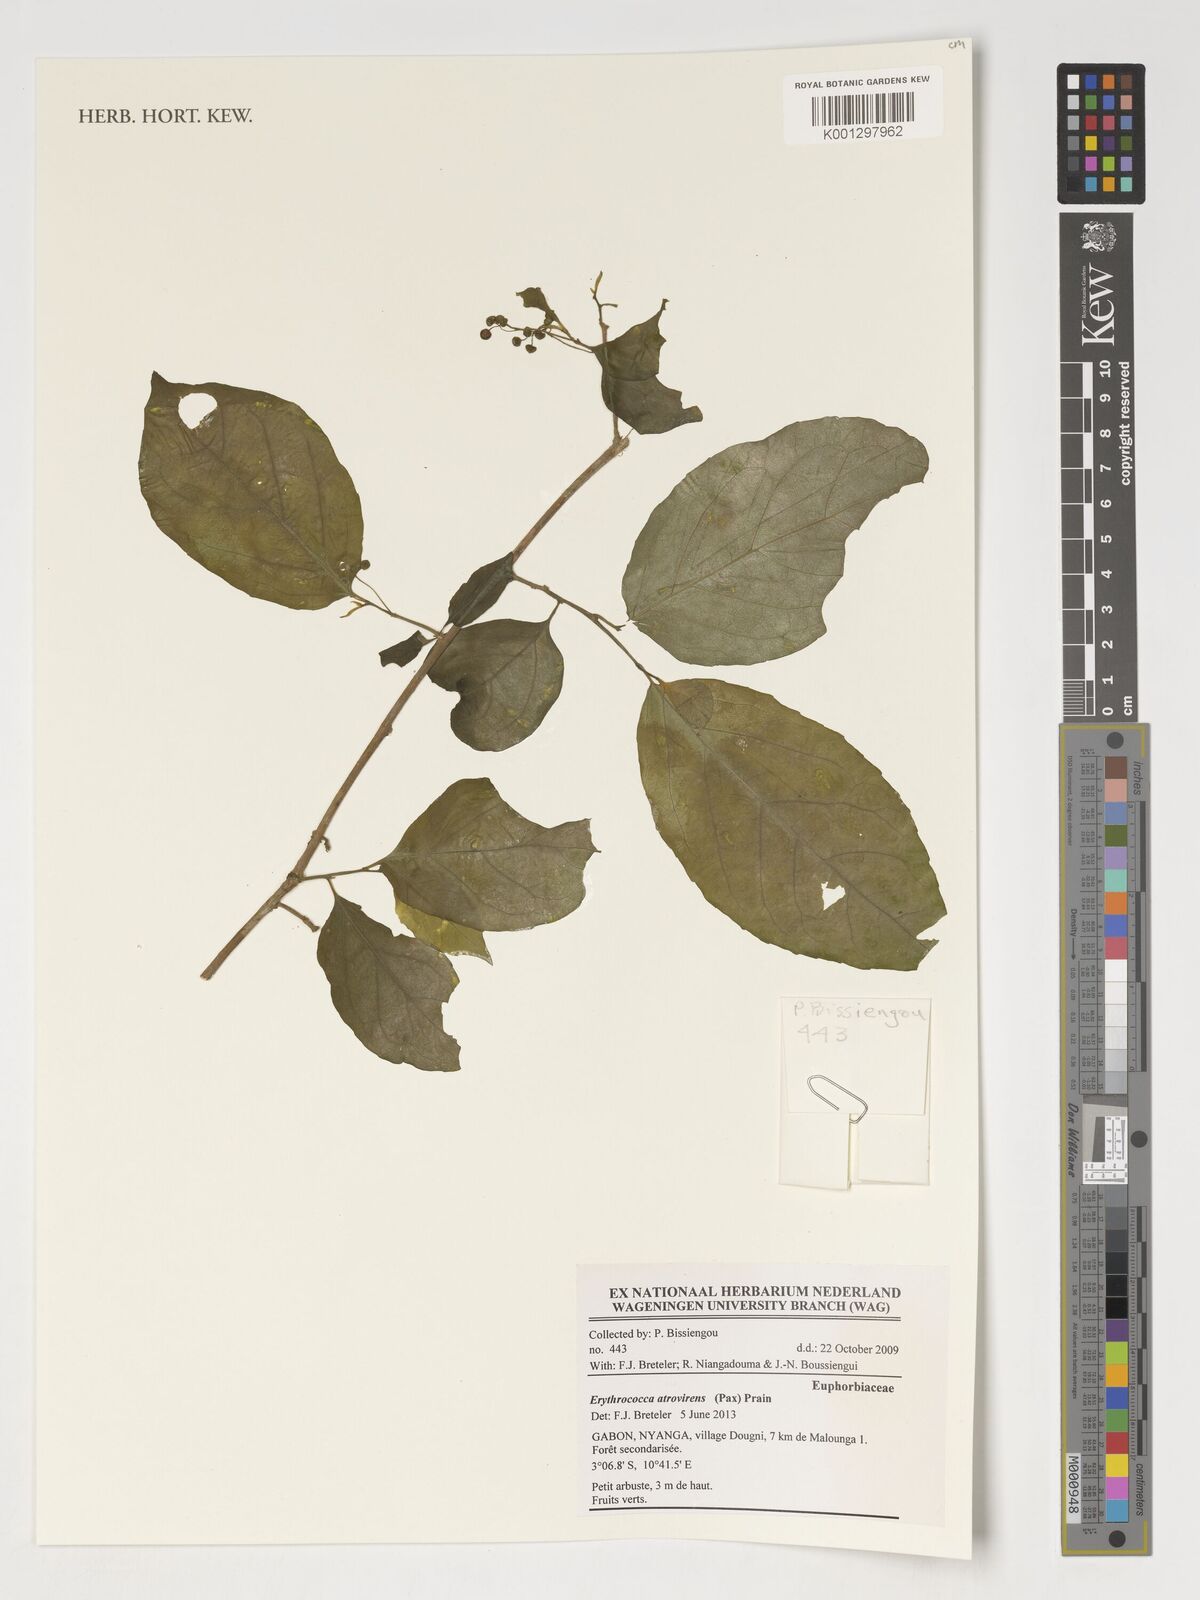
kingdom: Plantae
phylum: Tracheophyta
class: Magnoliopsida
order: Malpighiales
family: Euphorbiaceae
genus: Erythrococca
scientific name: Erythrococca atrovirens
